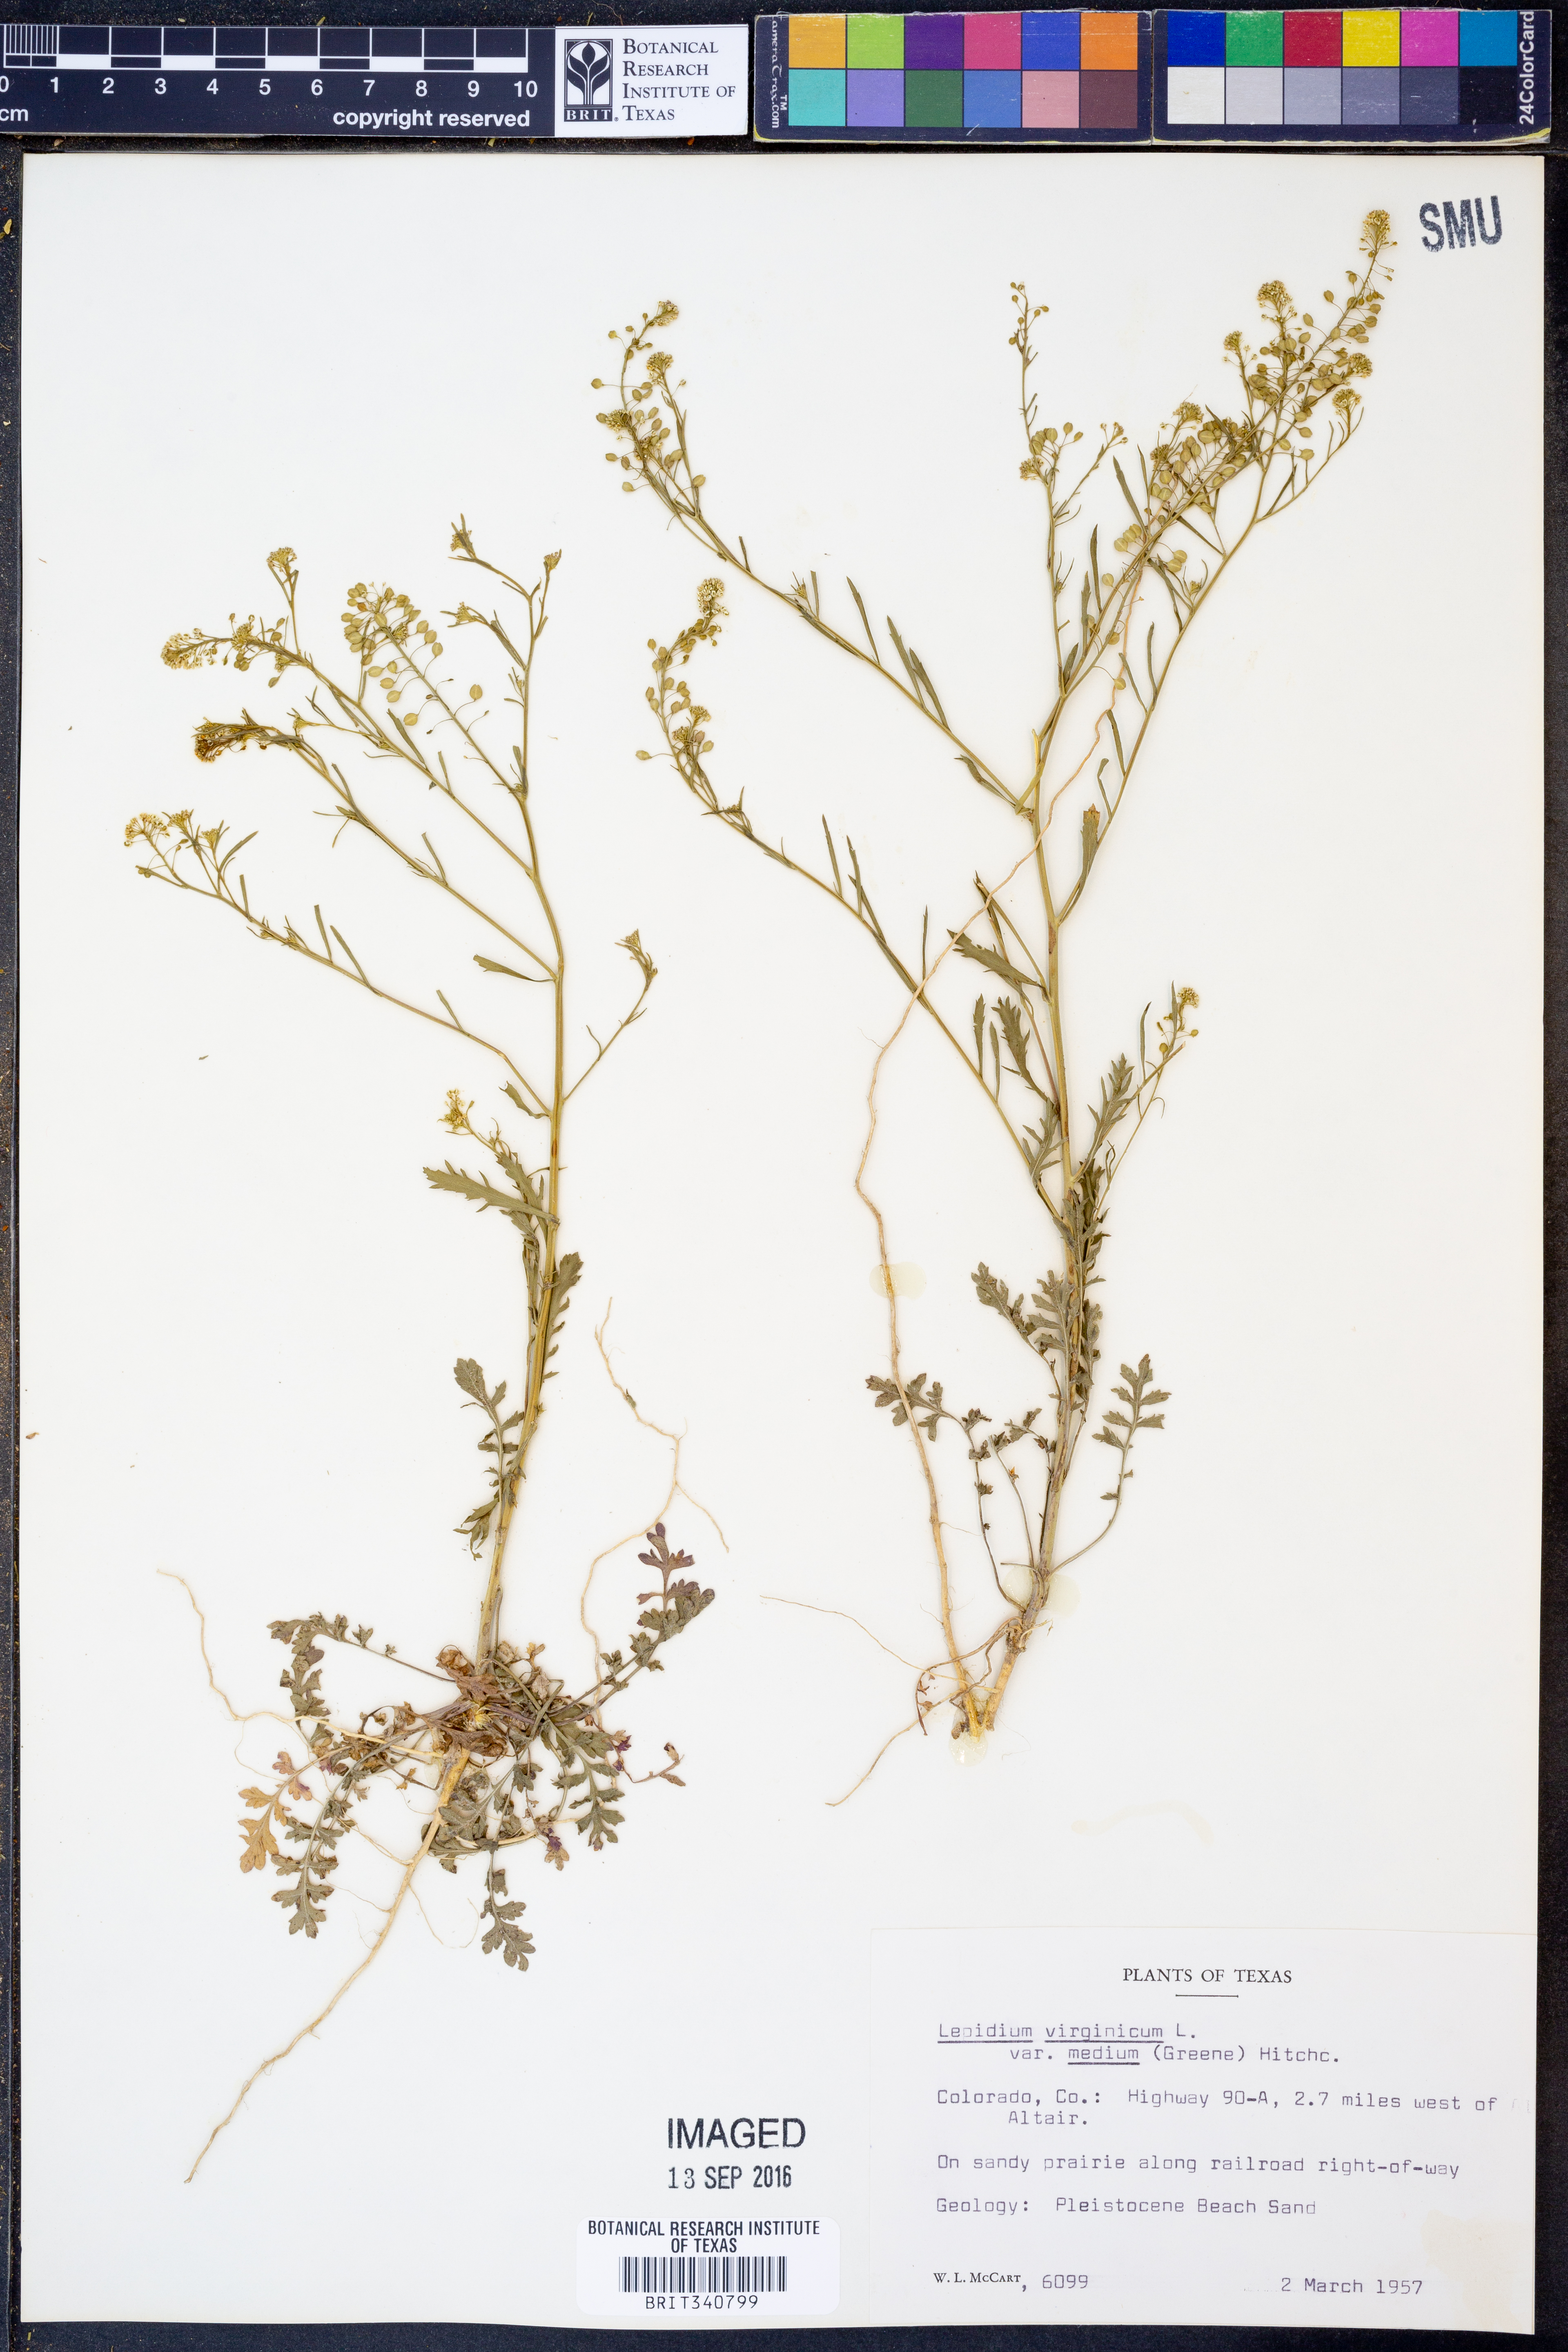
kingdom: Plantae
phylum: Tracheophyta
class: Magnoliopsida
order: Brassicales
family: Brassicaceae
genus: Lepidium
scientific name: Lepidium virginicum
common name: Least pepperwort
